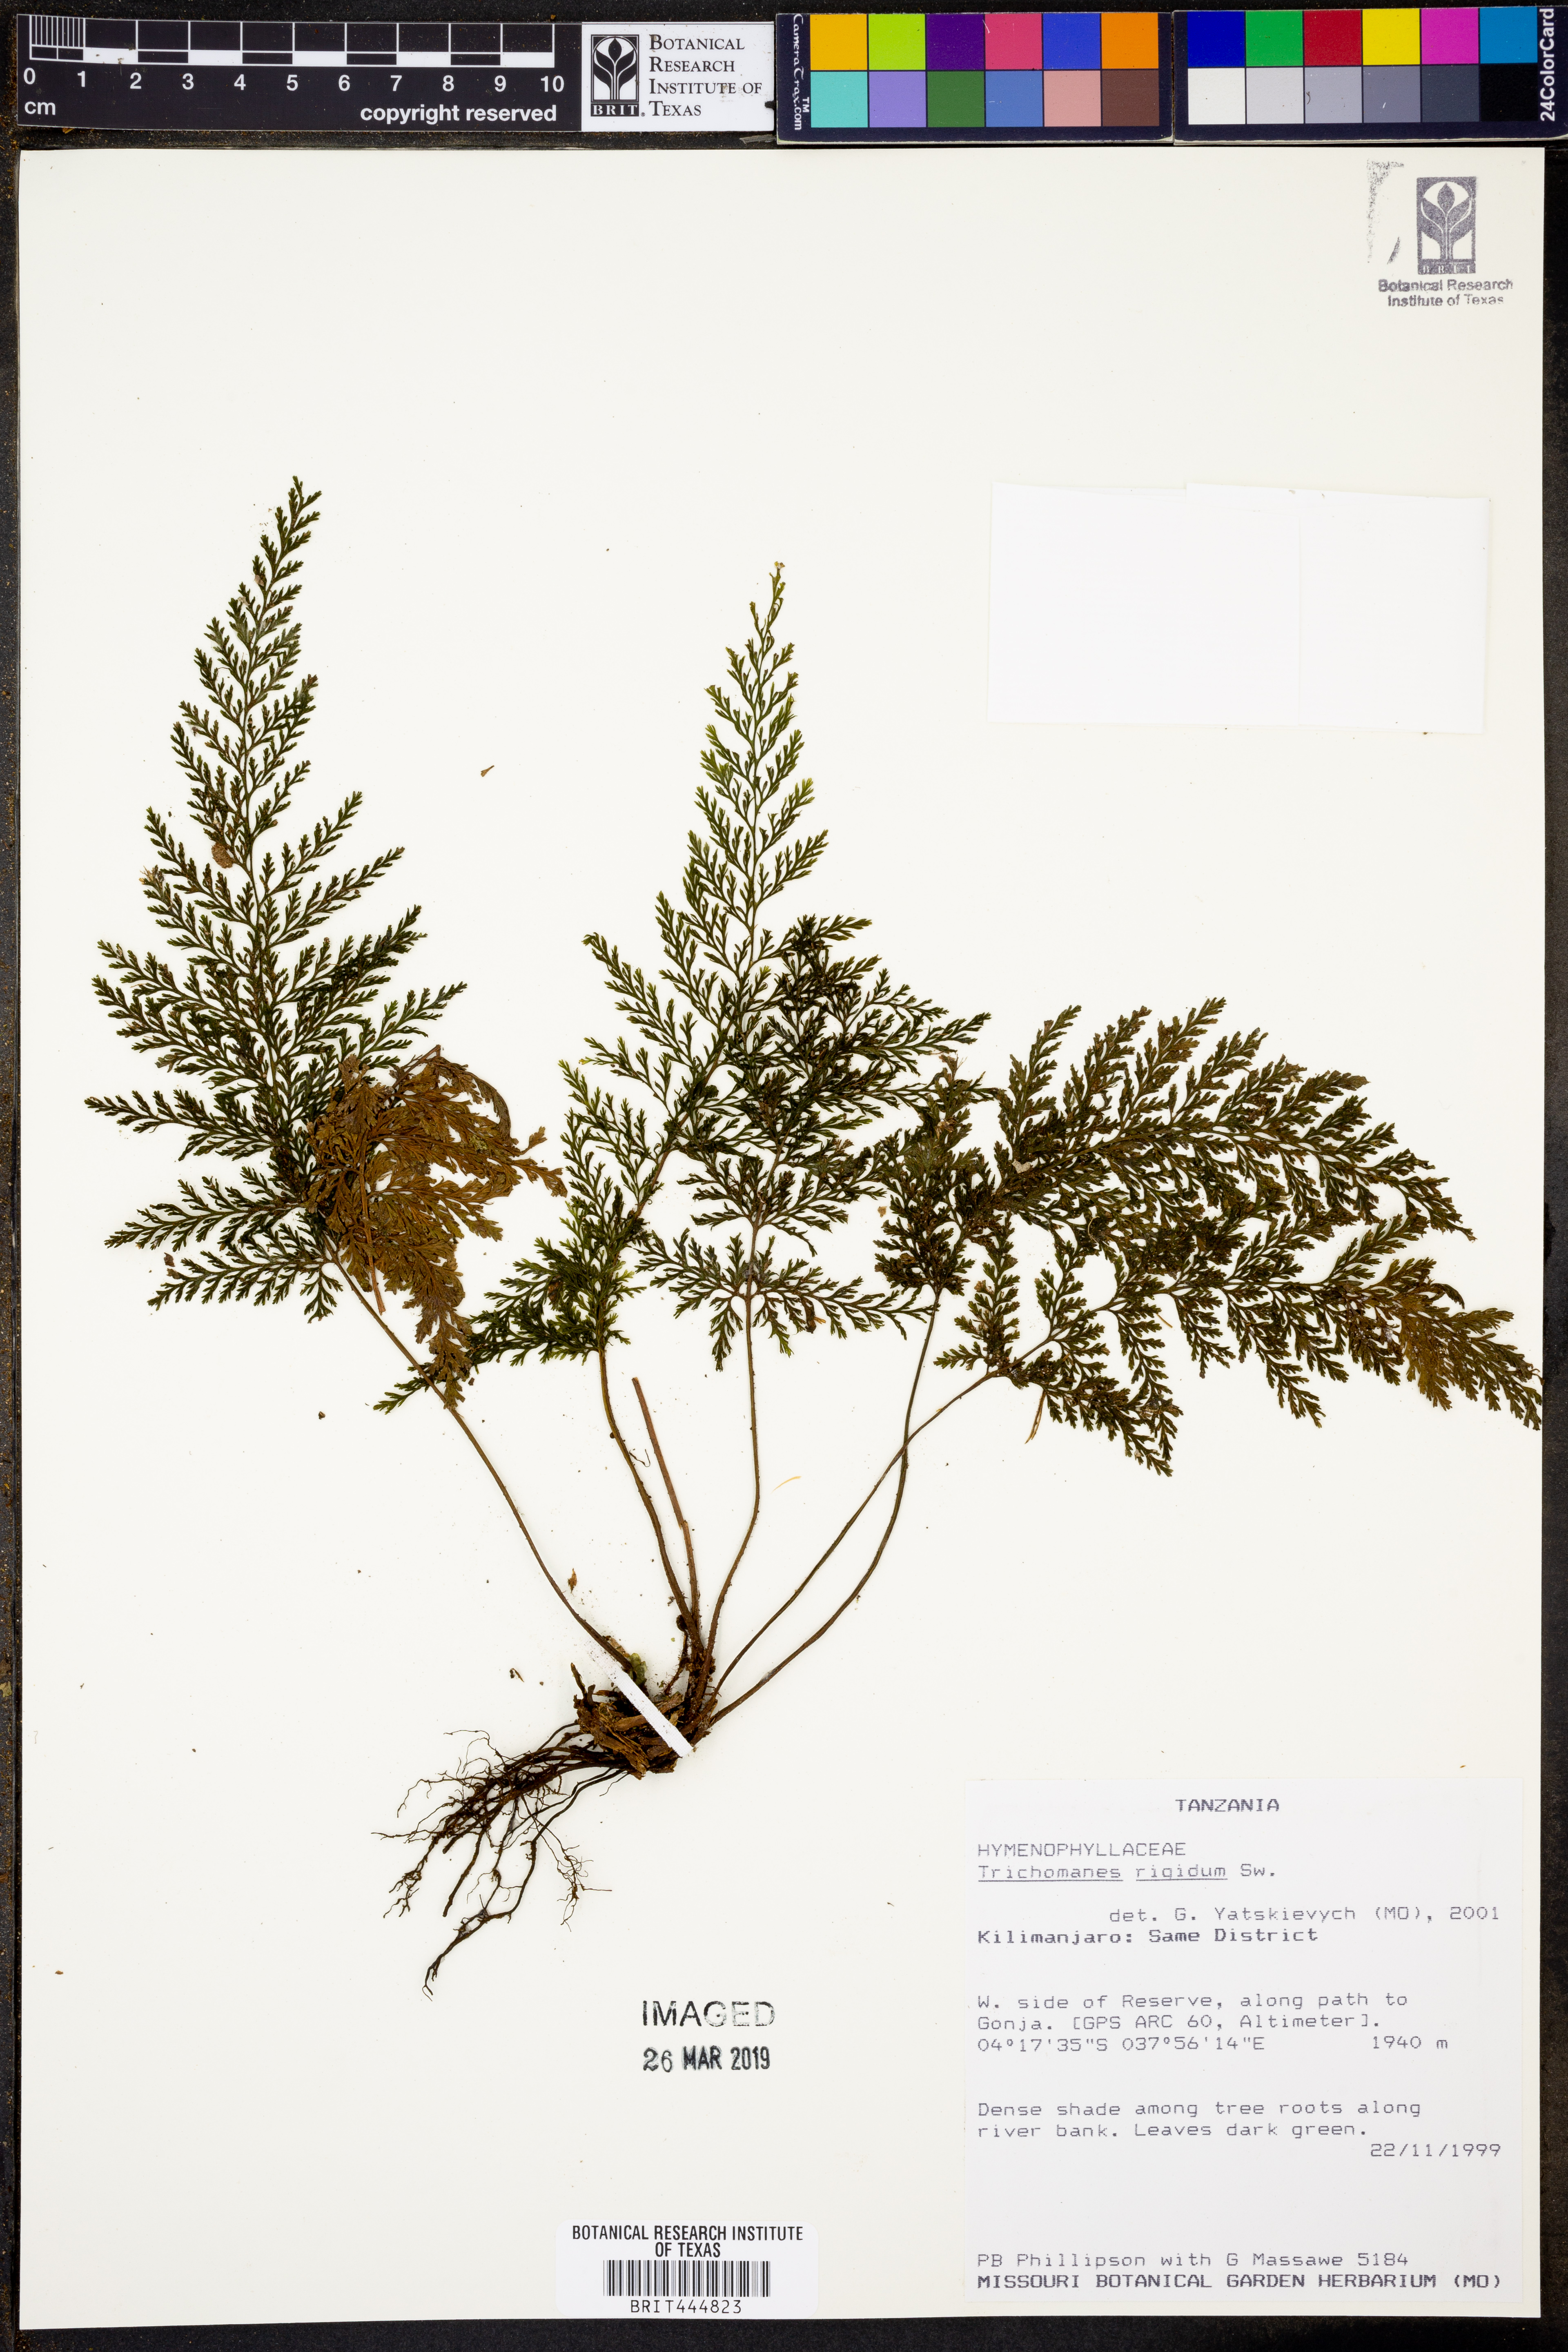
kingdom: Plantae
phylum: Tracheophyta
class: Polypodiopsida
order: Hymenophyllales
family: Hymenophyllaceae
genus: Abrodictyum
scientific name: Abrodictyum rigidum
